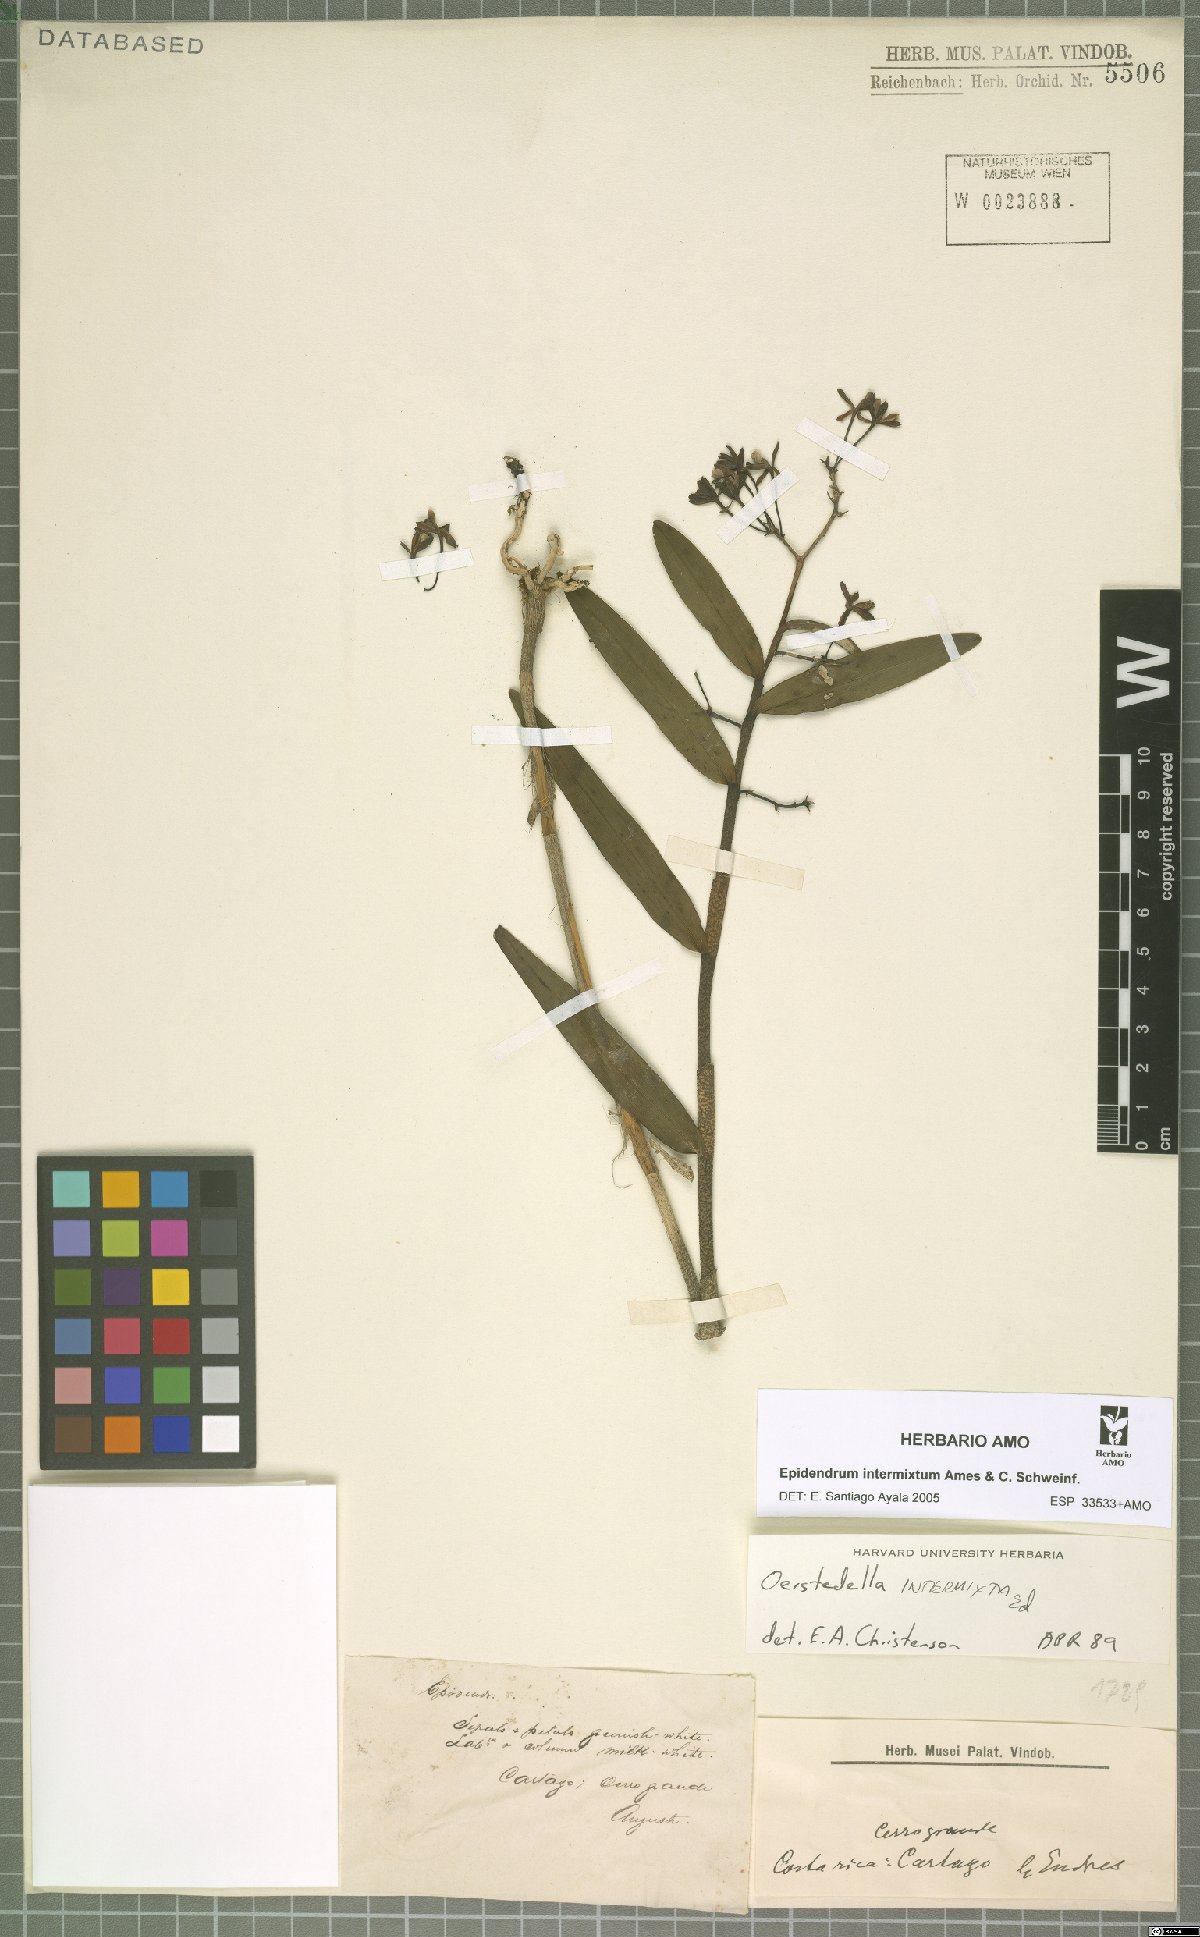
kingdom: Plantae
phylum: Tracheophyta
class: Liliopsida
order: Asparagales
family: Orchidaceae
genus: Epidendrum
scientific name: Epidendrum intermixtum
